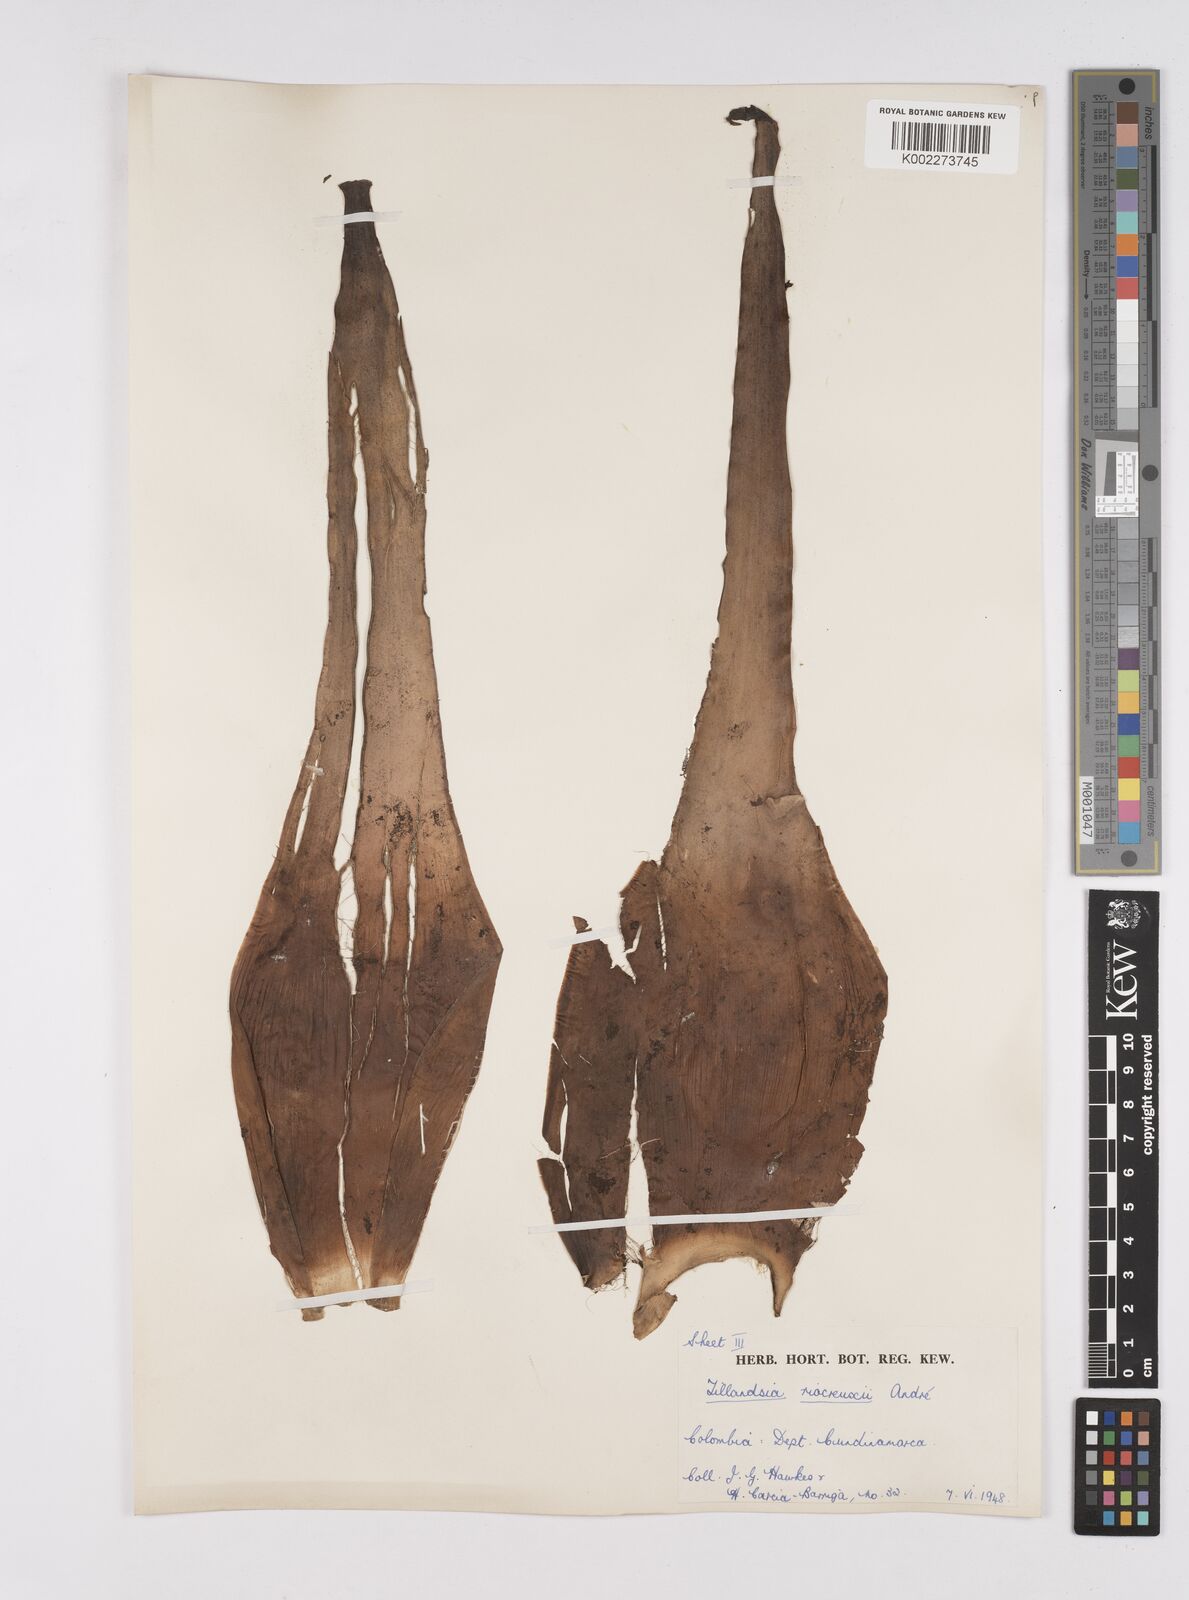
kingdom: Plantae
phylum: Tracheophyta
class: Liliopsida
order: Poales
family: Bromeliaceae
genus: Racinaea
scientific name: Racinaea riocreuxii
